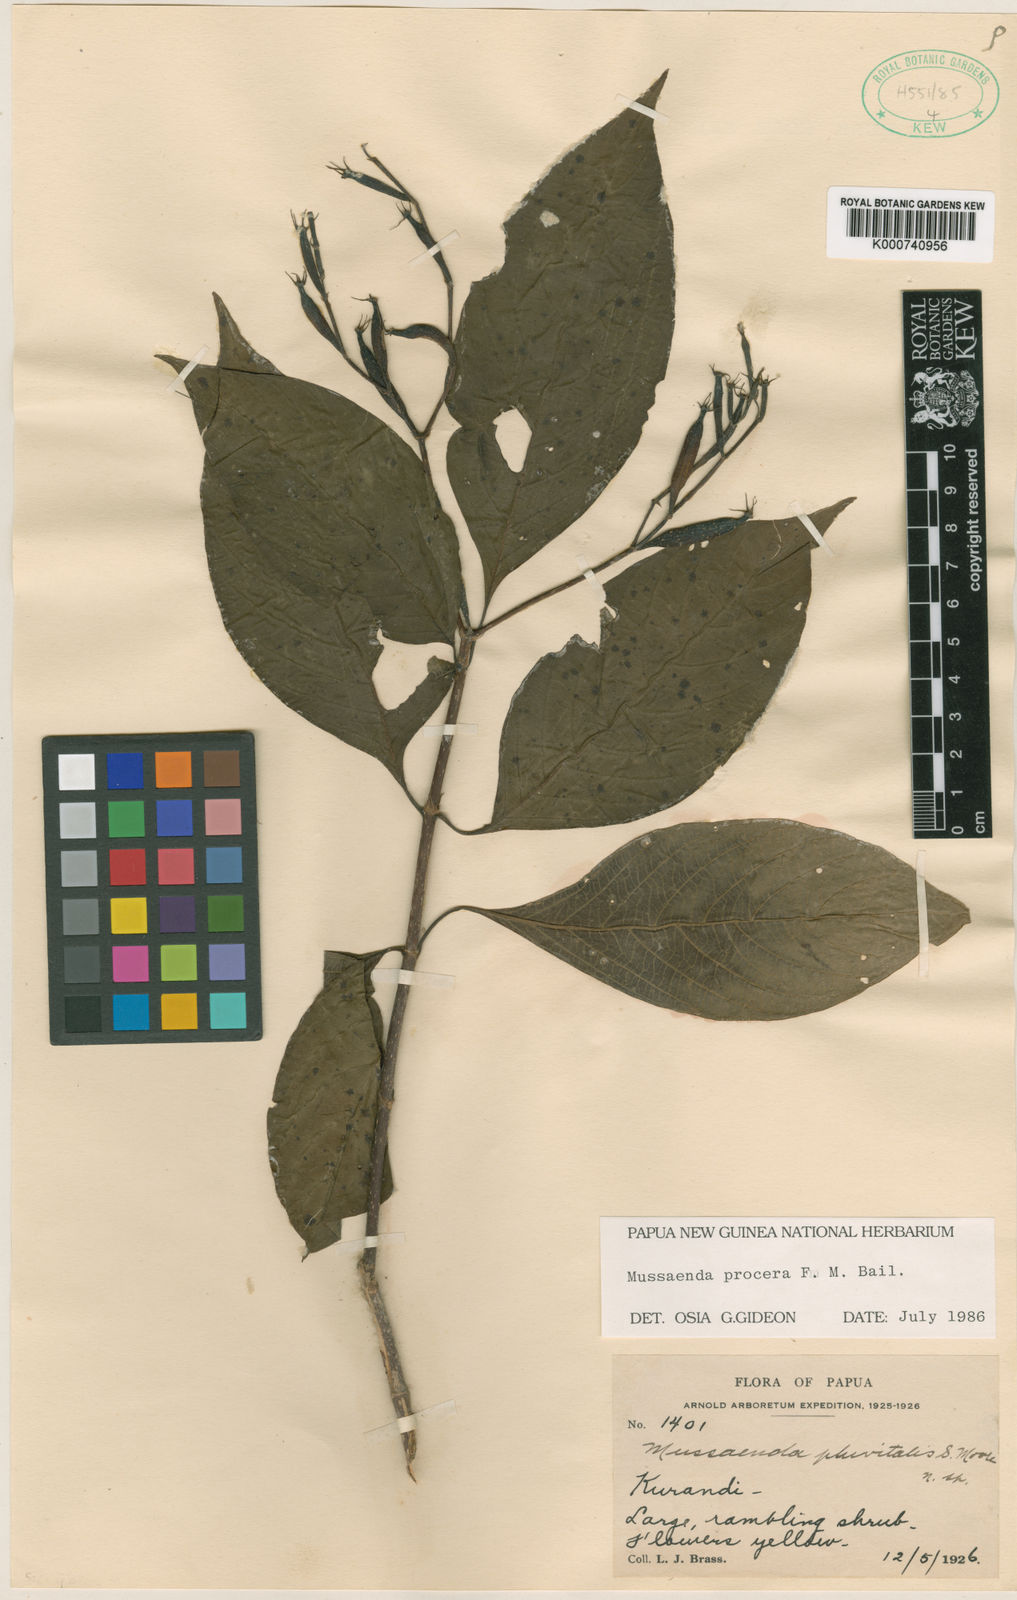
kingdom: Plantae
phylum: Tracheophyta
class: Magnoliopsida
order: Gentianales
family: Rubiaceae
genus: Mussaenda
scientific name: Mussaenda procera
